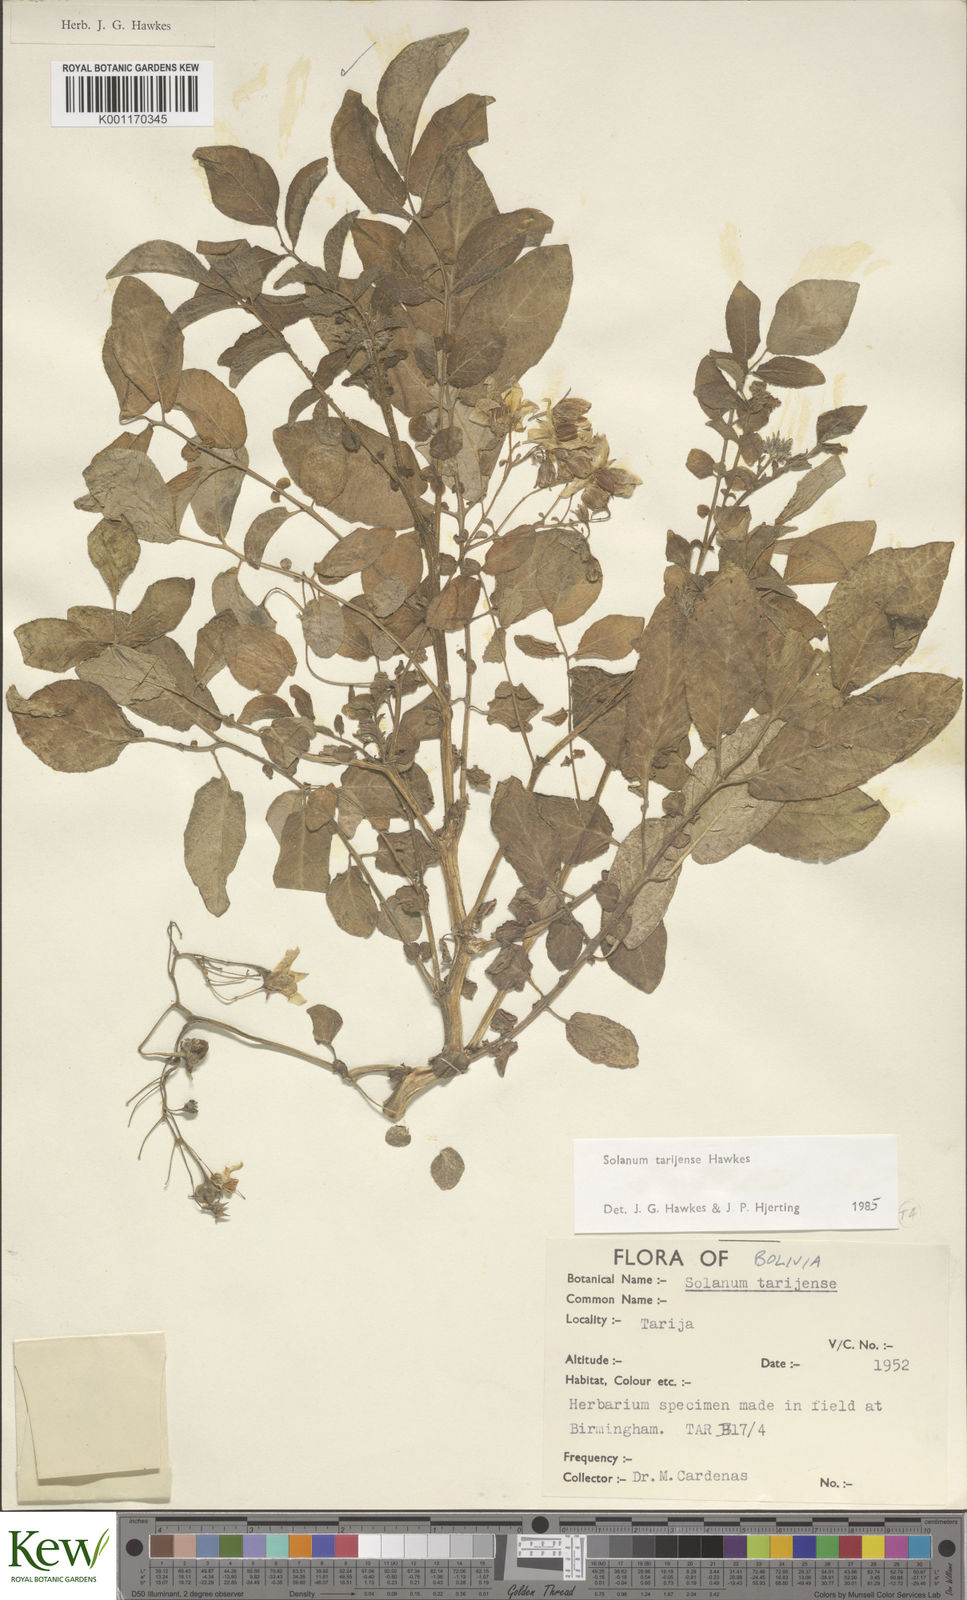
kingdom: Plantae
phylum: Tracheophyta
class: Magnoliopsida
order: Solanales
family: Solanaceae
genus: Solanum
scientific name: Solanum tarijense
